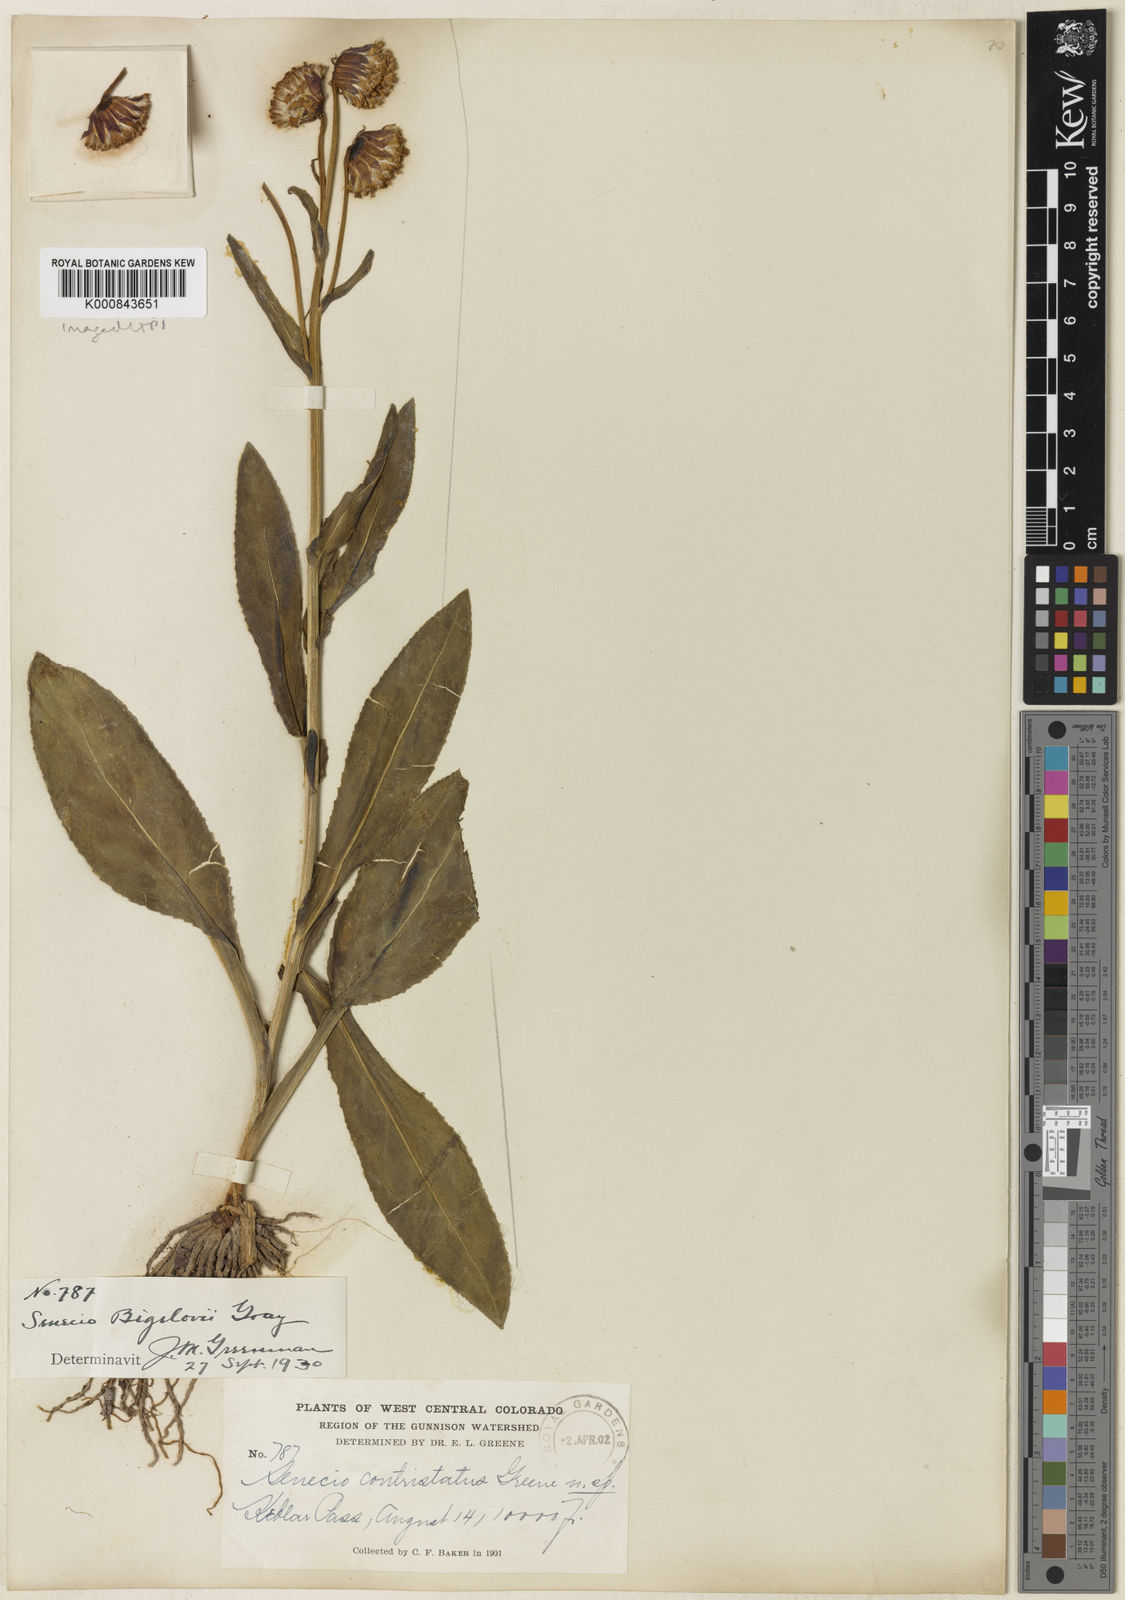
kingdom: Plantae
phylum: Tracheophyta
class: Magnoliopsida
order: Asterales
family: Asteraceae
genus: Senecio
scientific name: Senecio bigelovii
